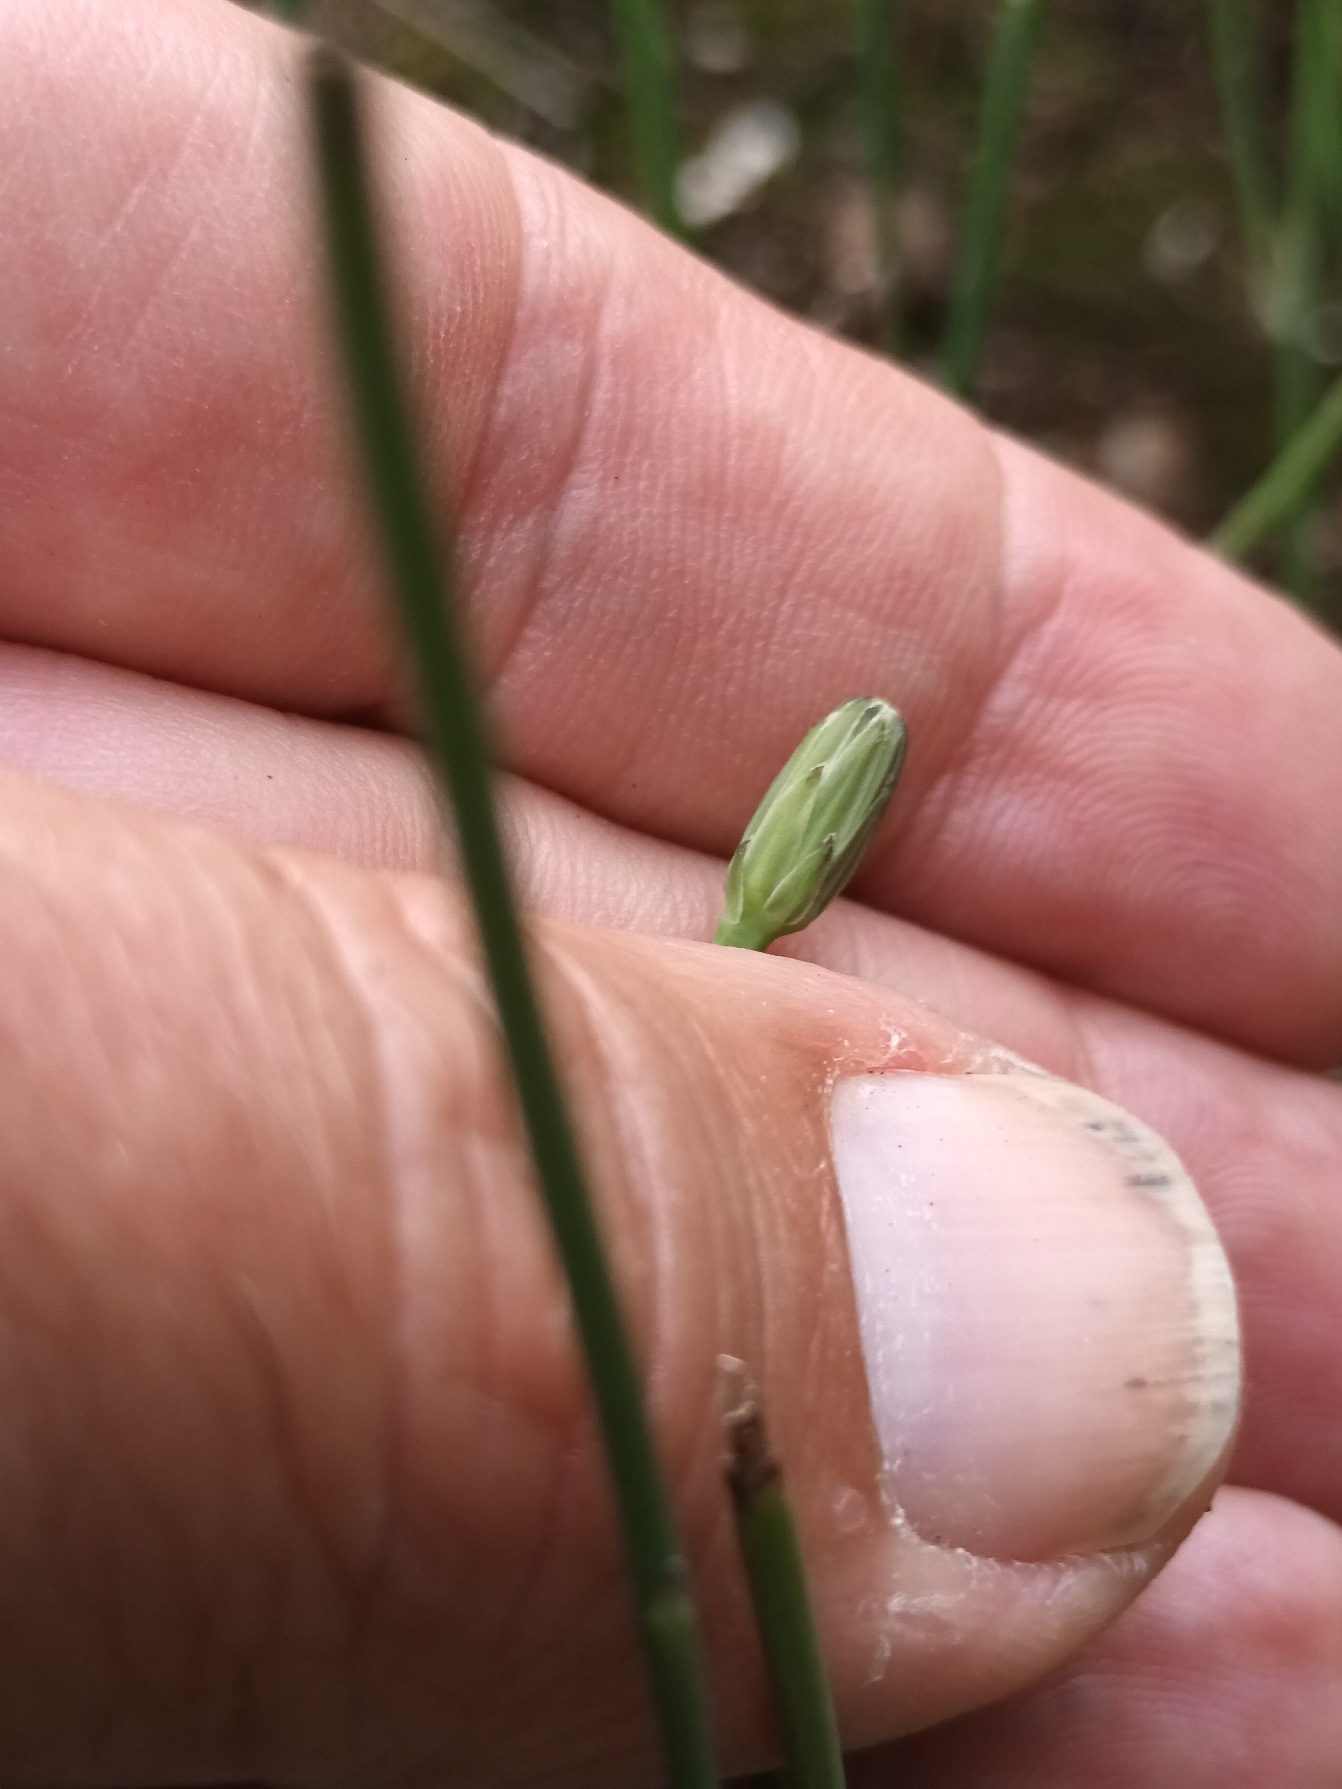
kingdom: Plantae
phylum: Tracheophyta
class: Magnoliopsida
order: Asterales
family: Asteraceae
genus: Hypochaeris
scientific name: Hypochaeris radicata
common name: Almindelig kongepen
